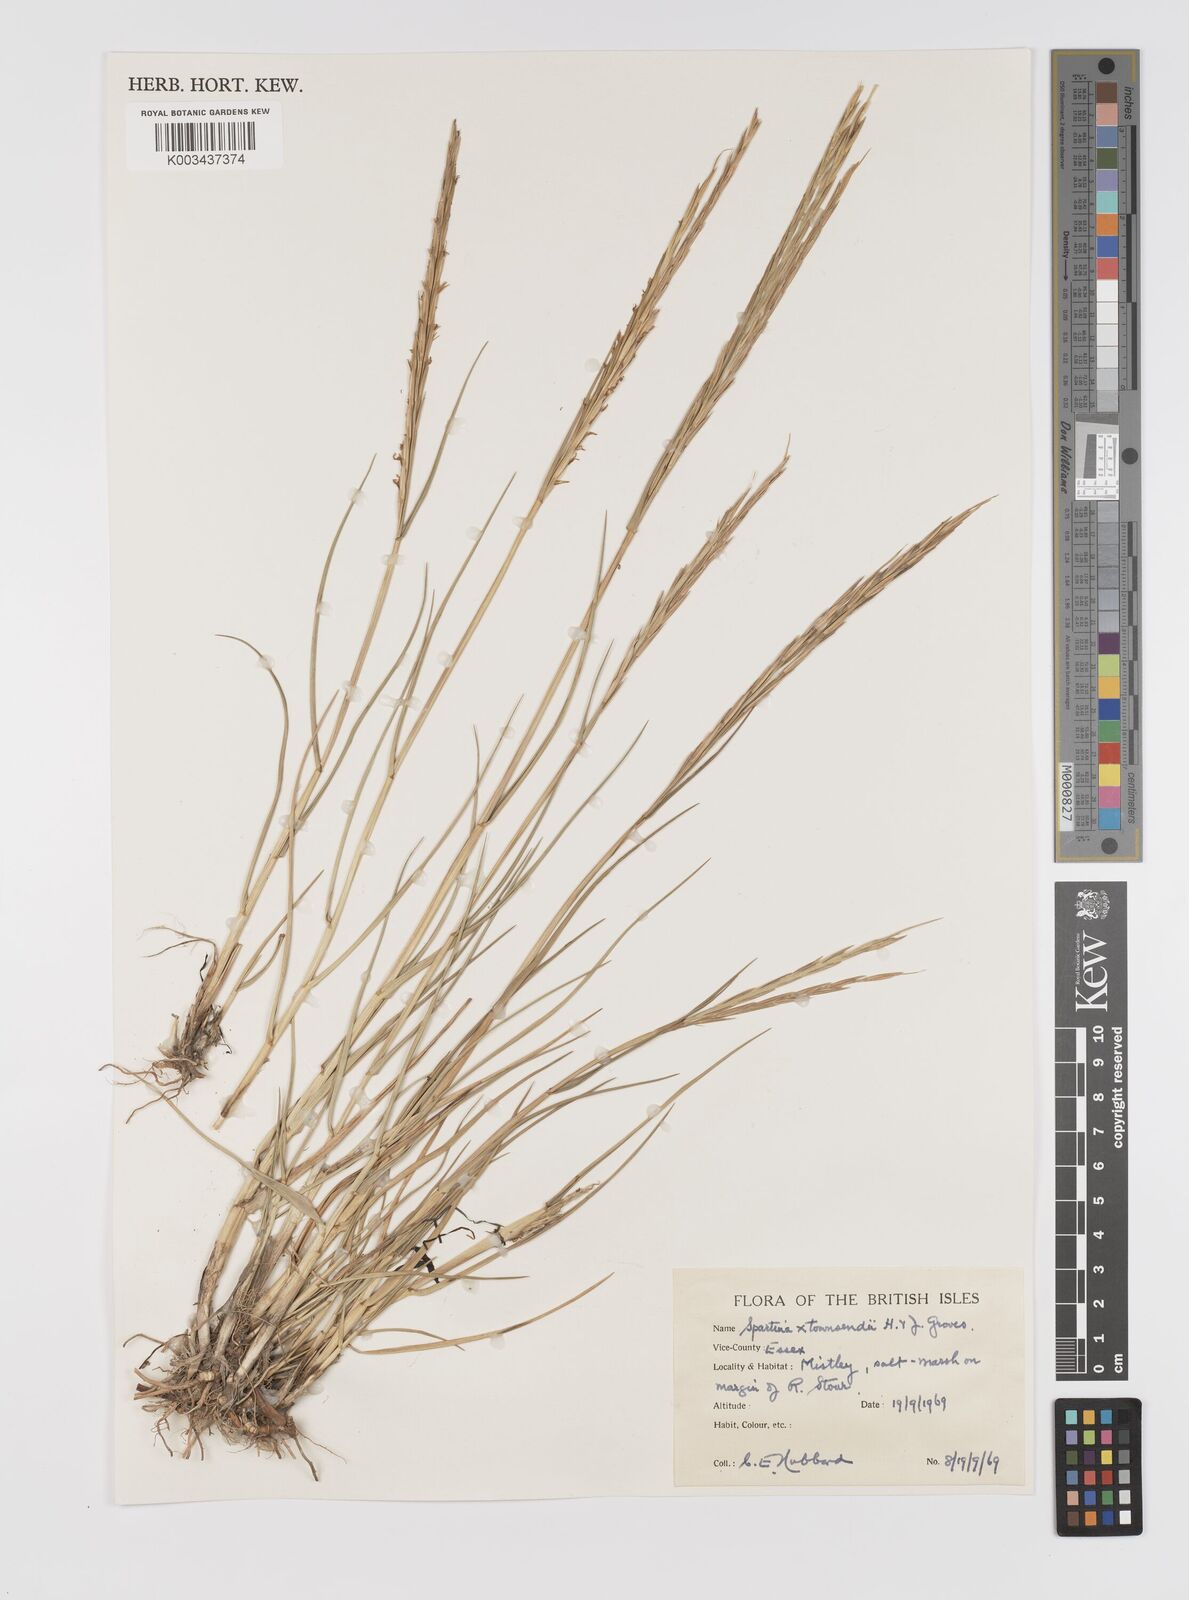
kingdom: Plantae
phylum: Tracheophyta
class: Liliopsida
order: Poales
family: Poaceae
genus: Sporobolus
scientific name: Sporobolus townsendii
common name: Townsend's cordgrass
